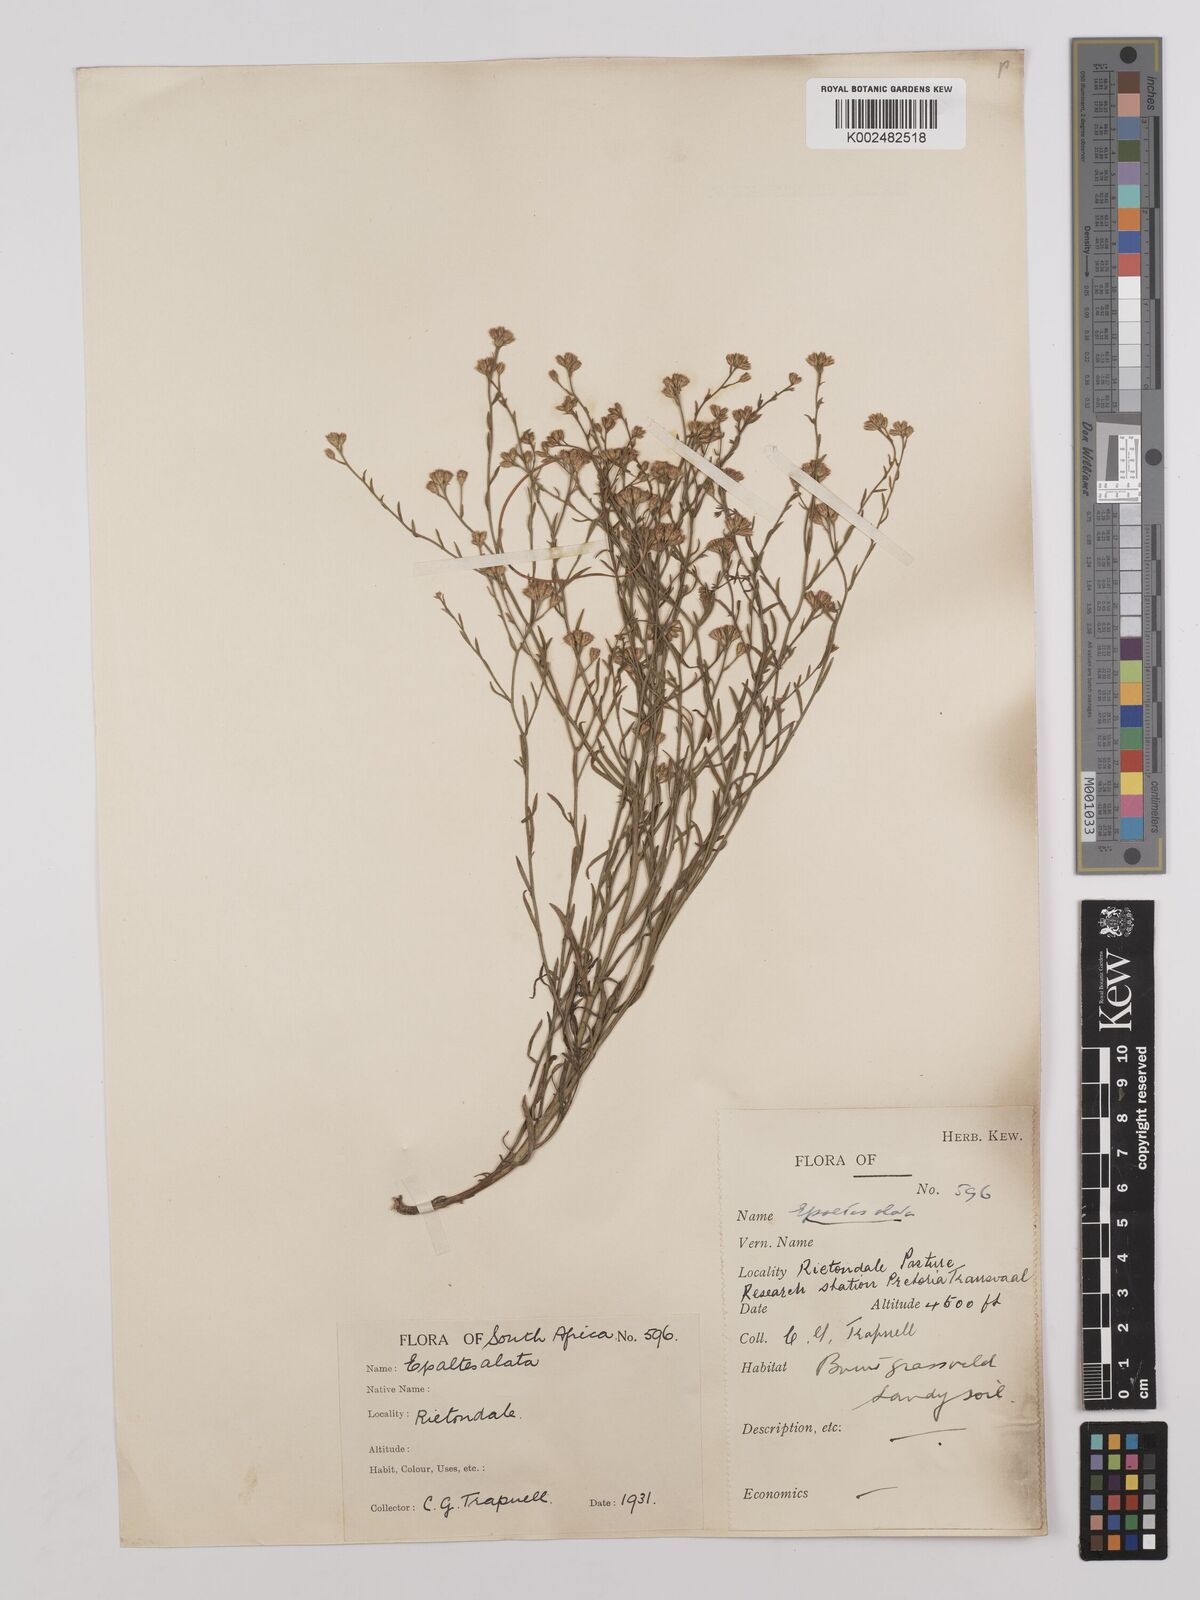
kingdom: Plantae
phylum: Tracheophyta
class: Magnoliopsida
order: Asterales
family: Asteraceae
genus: Litogyne
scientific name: Litogyne gariepina
